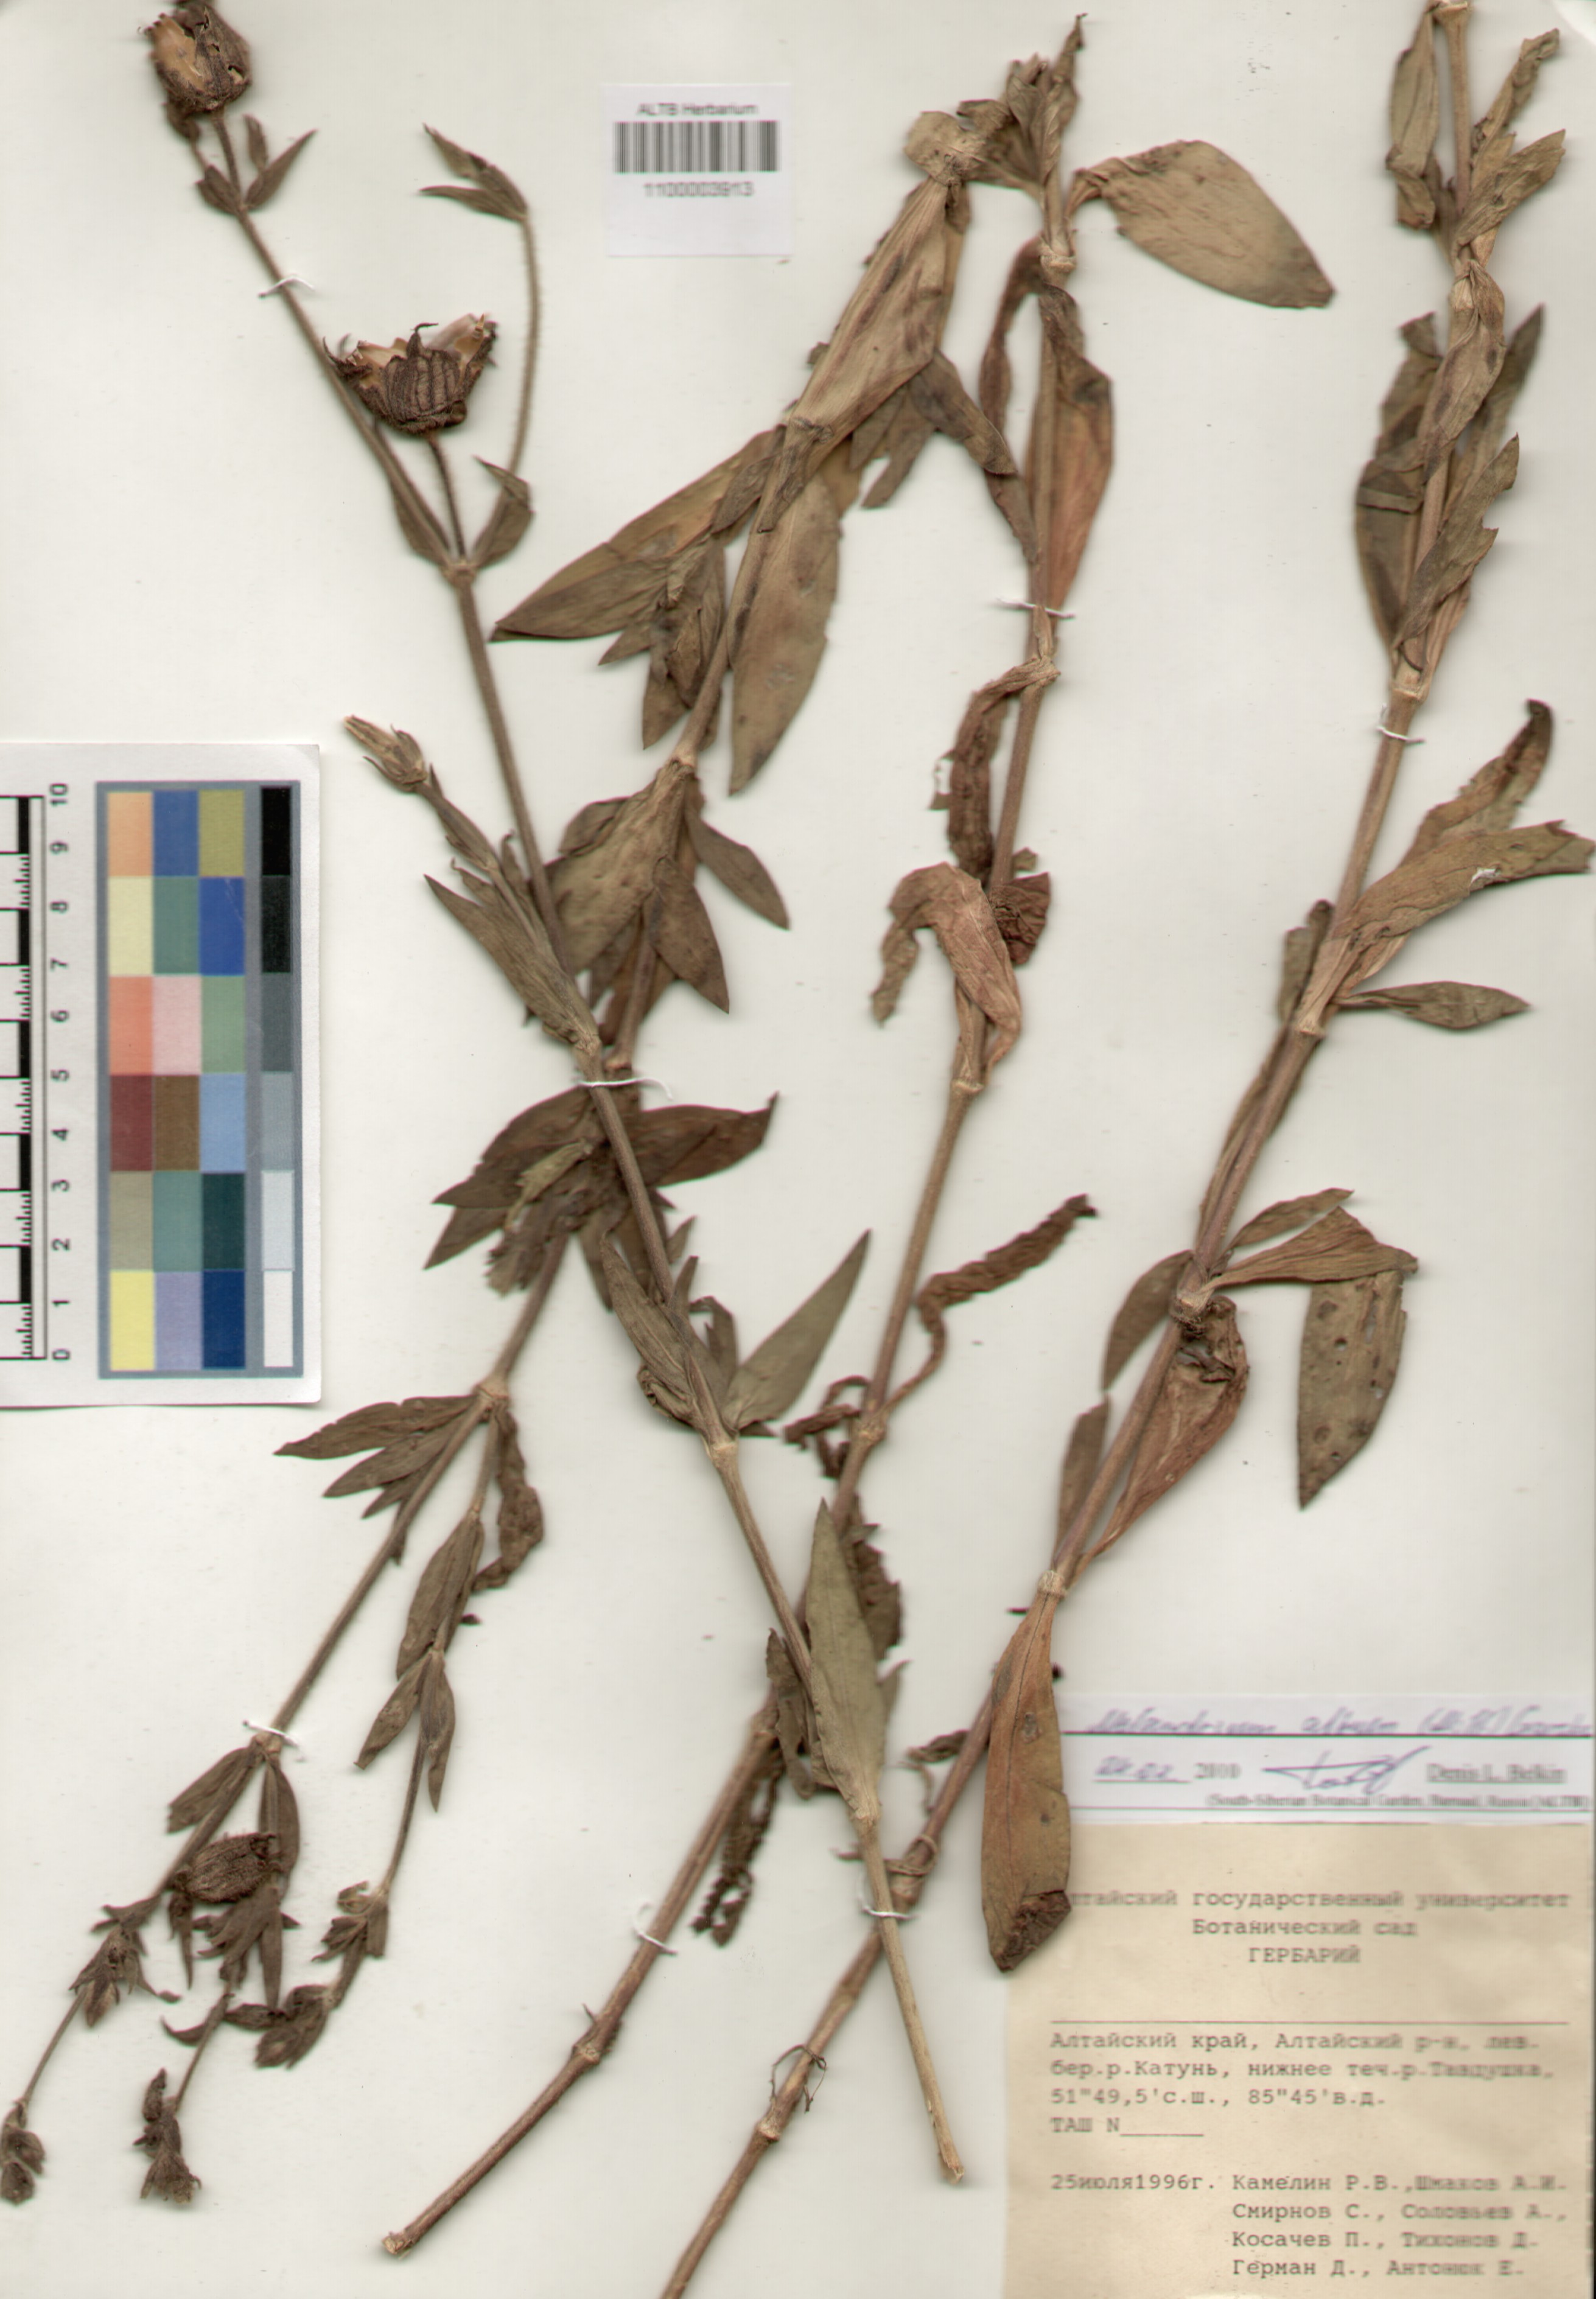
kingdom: Plantae
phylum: Tracheophyta
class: Magnoliopsida
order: Caryophyllales
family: Caryophyllaceae
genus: Silene
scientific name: Silene latifolia
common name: White campion
